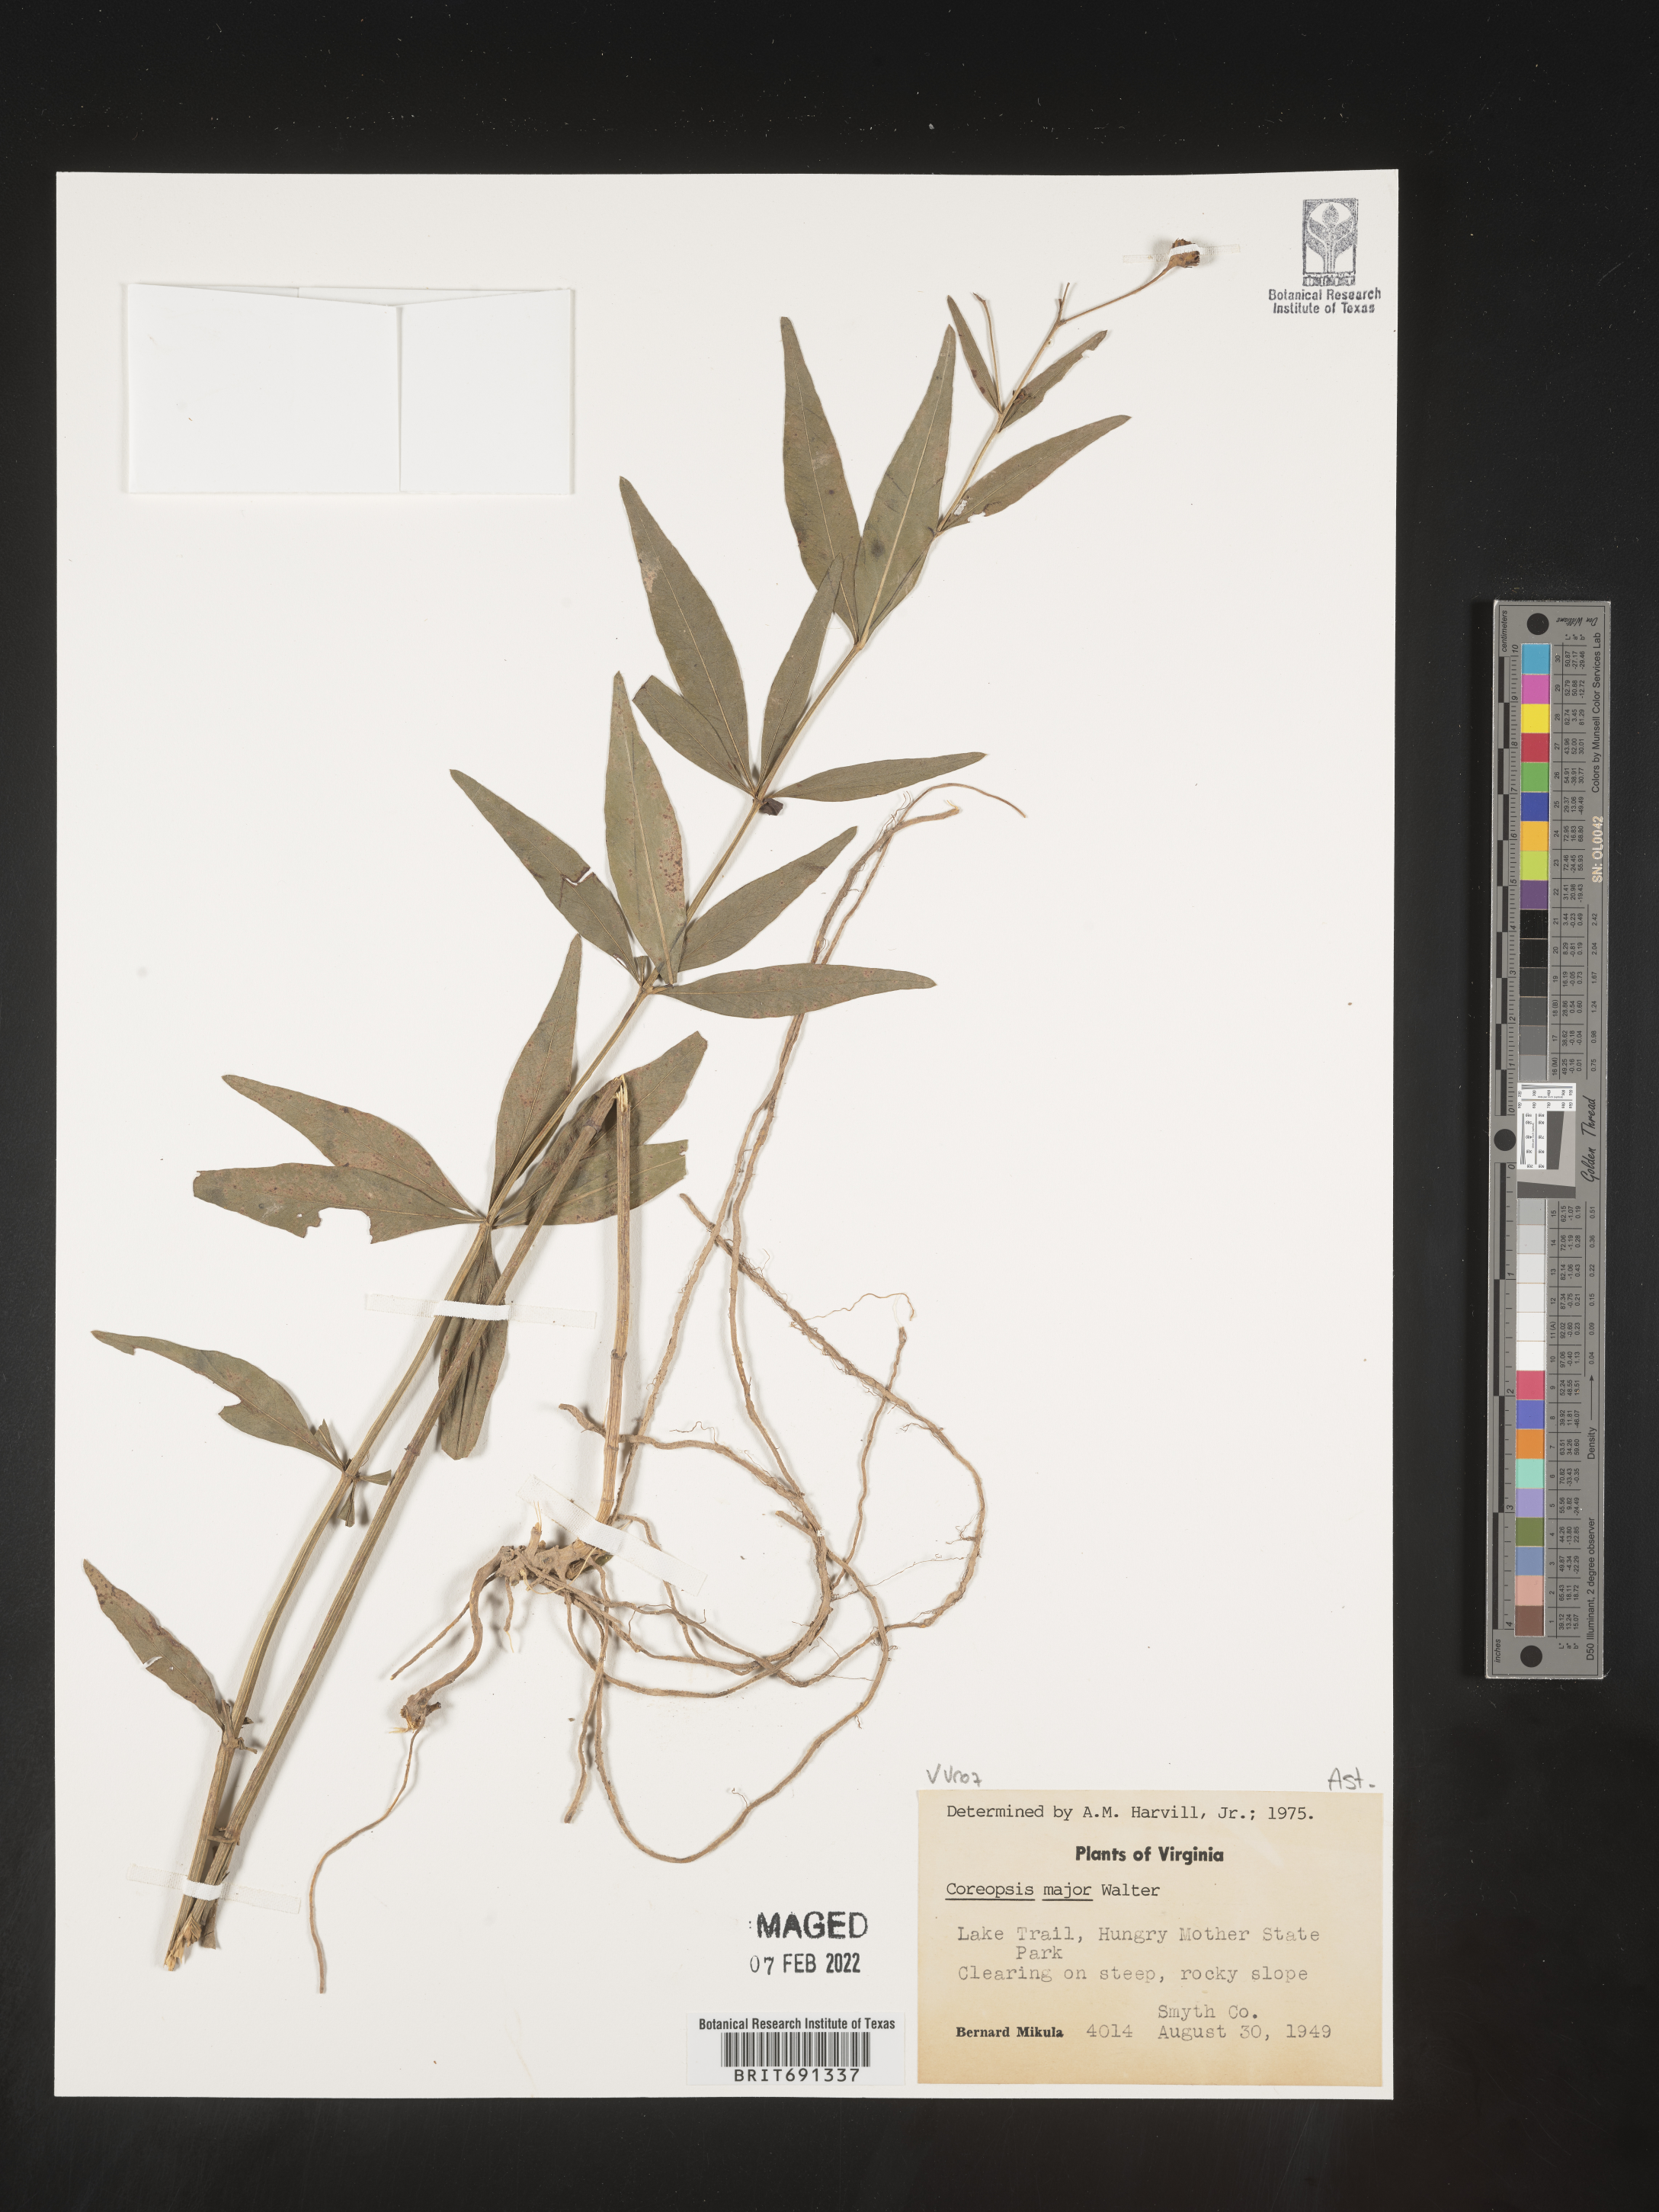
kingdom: Plantae
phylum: Tracheophyta
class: Magnoliopsida
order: Asterales
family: Asteraceae
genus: Coreopsis
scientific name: Coreopsis major
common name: Forest tickseed
